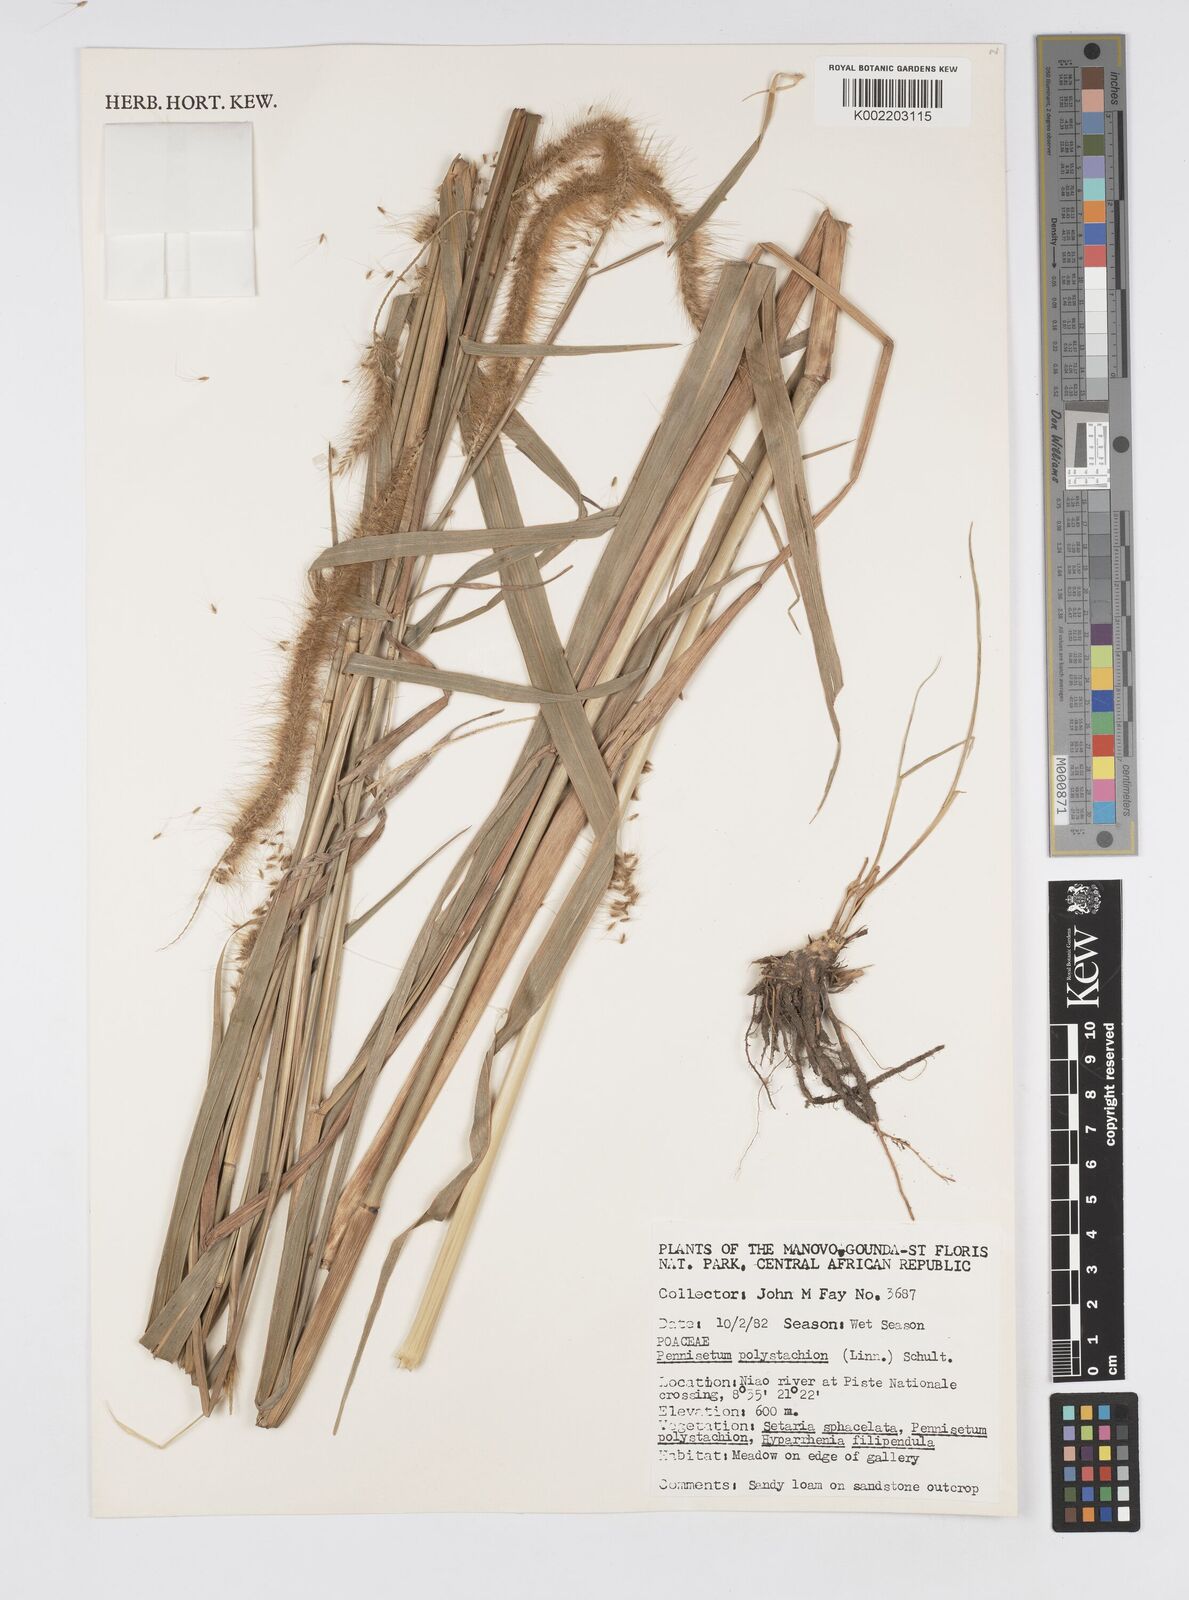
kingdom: Plantae
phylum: Tracheophyta
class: Liliopsida
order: Poales
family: Poaceae
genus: Setaria
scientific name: Setaria parviflora
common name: Knotroot bristle-grass
